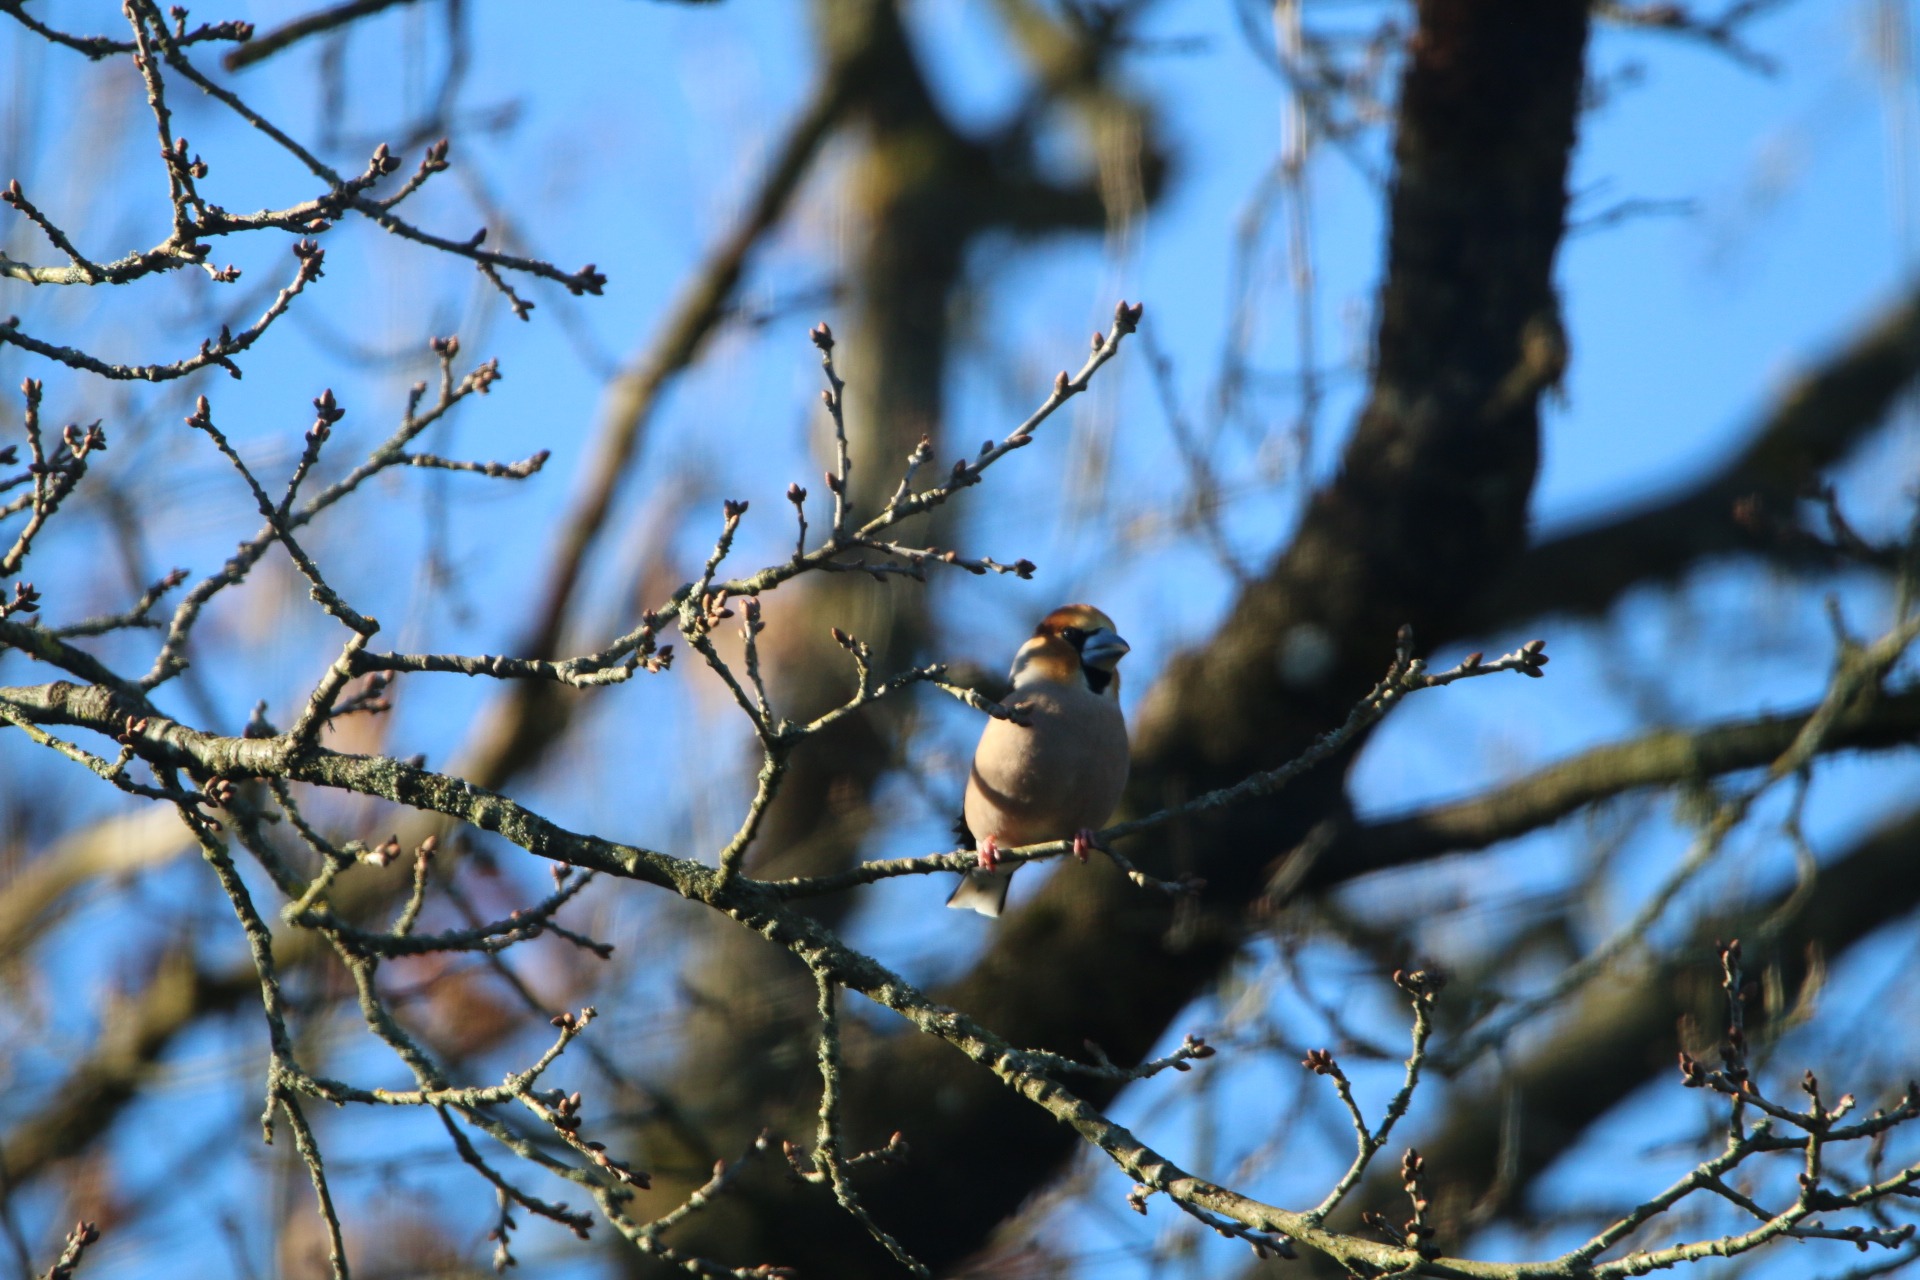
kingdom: Animalia
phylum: Chordata
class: Aves
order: Passeriformes
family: Fringillidae
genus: Coccothraustes
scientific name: Coccothraustes coccothraustes
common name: Kernebider
